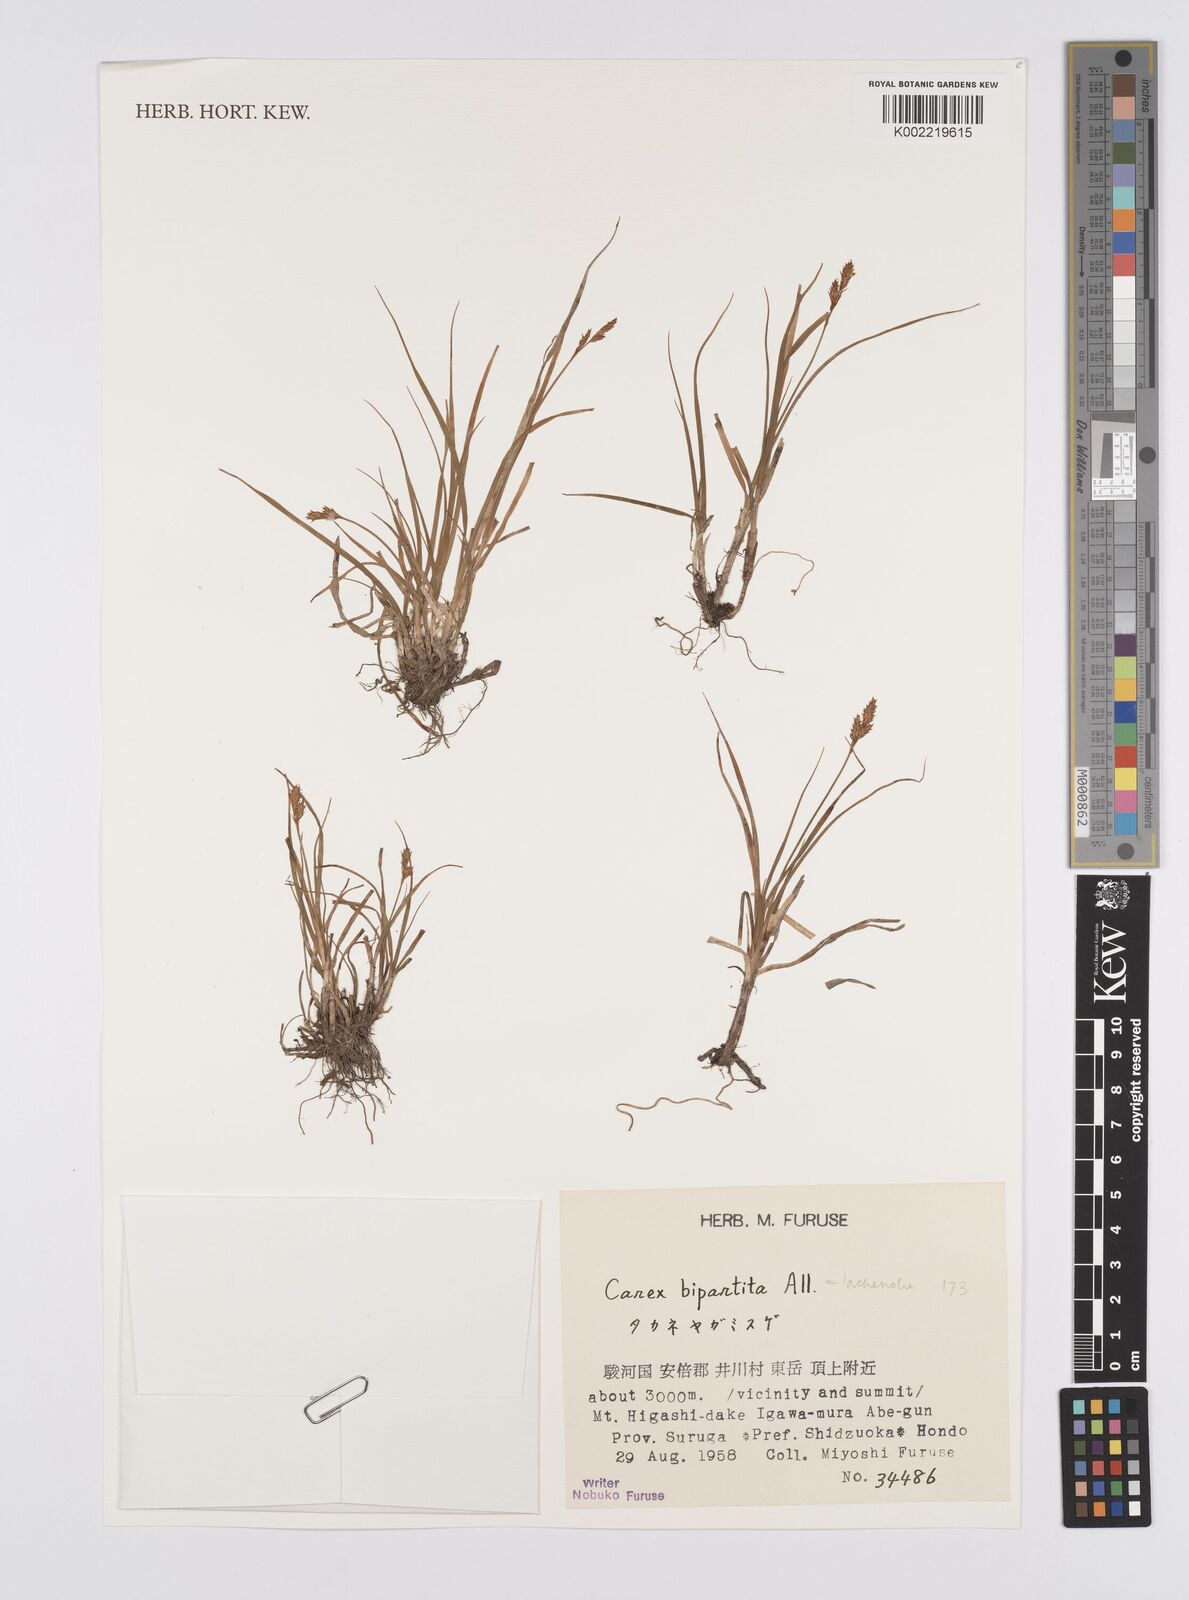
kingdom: Plantae
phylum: Tracheophyta
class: Liliopsida
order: Poales
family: Cyperaceae
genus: Carex
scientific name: Carex simpliciuscula
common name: Simple bog sedge
